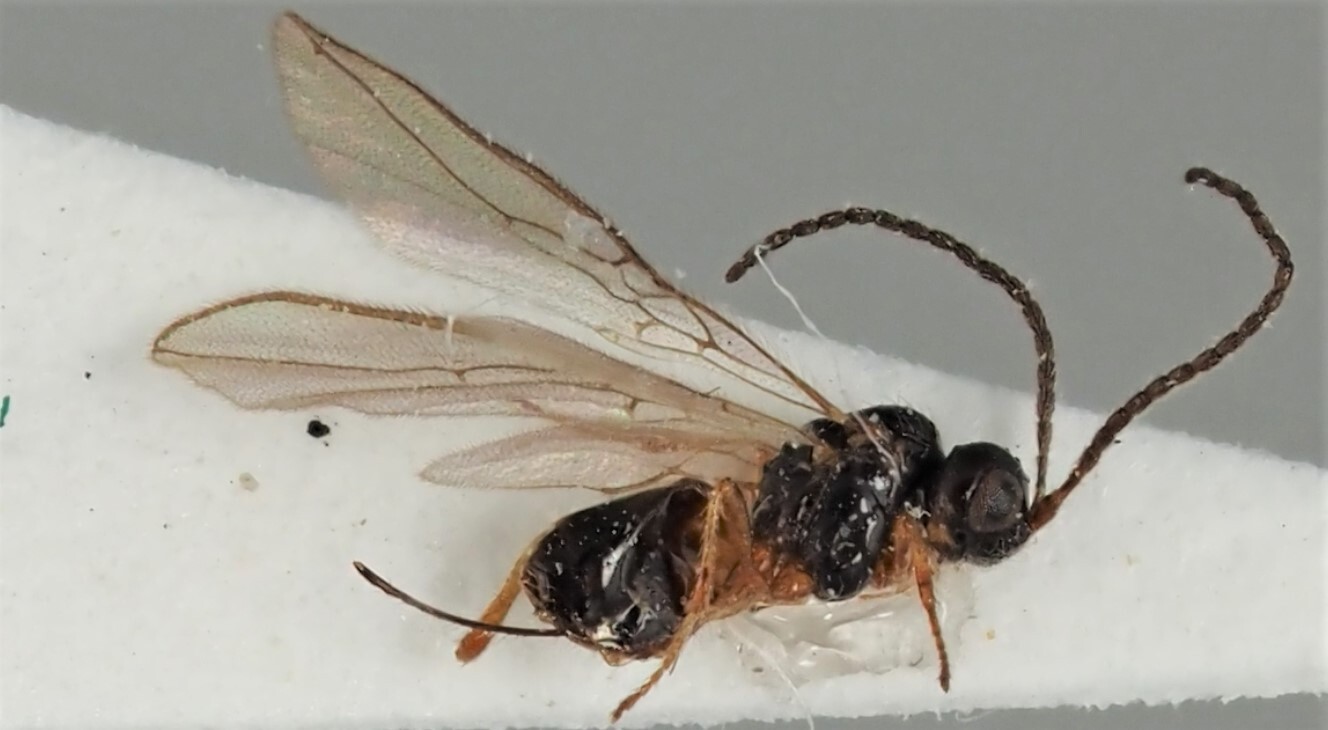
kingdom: Animalia
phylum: Arthropoda
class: Insecta
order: Hymenoptera
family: Braconidae
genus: Dinotrema
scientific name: Dinotrema mananae
